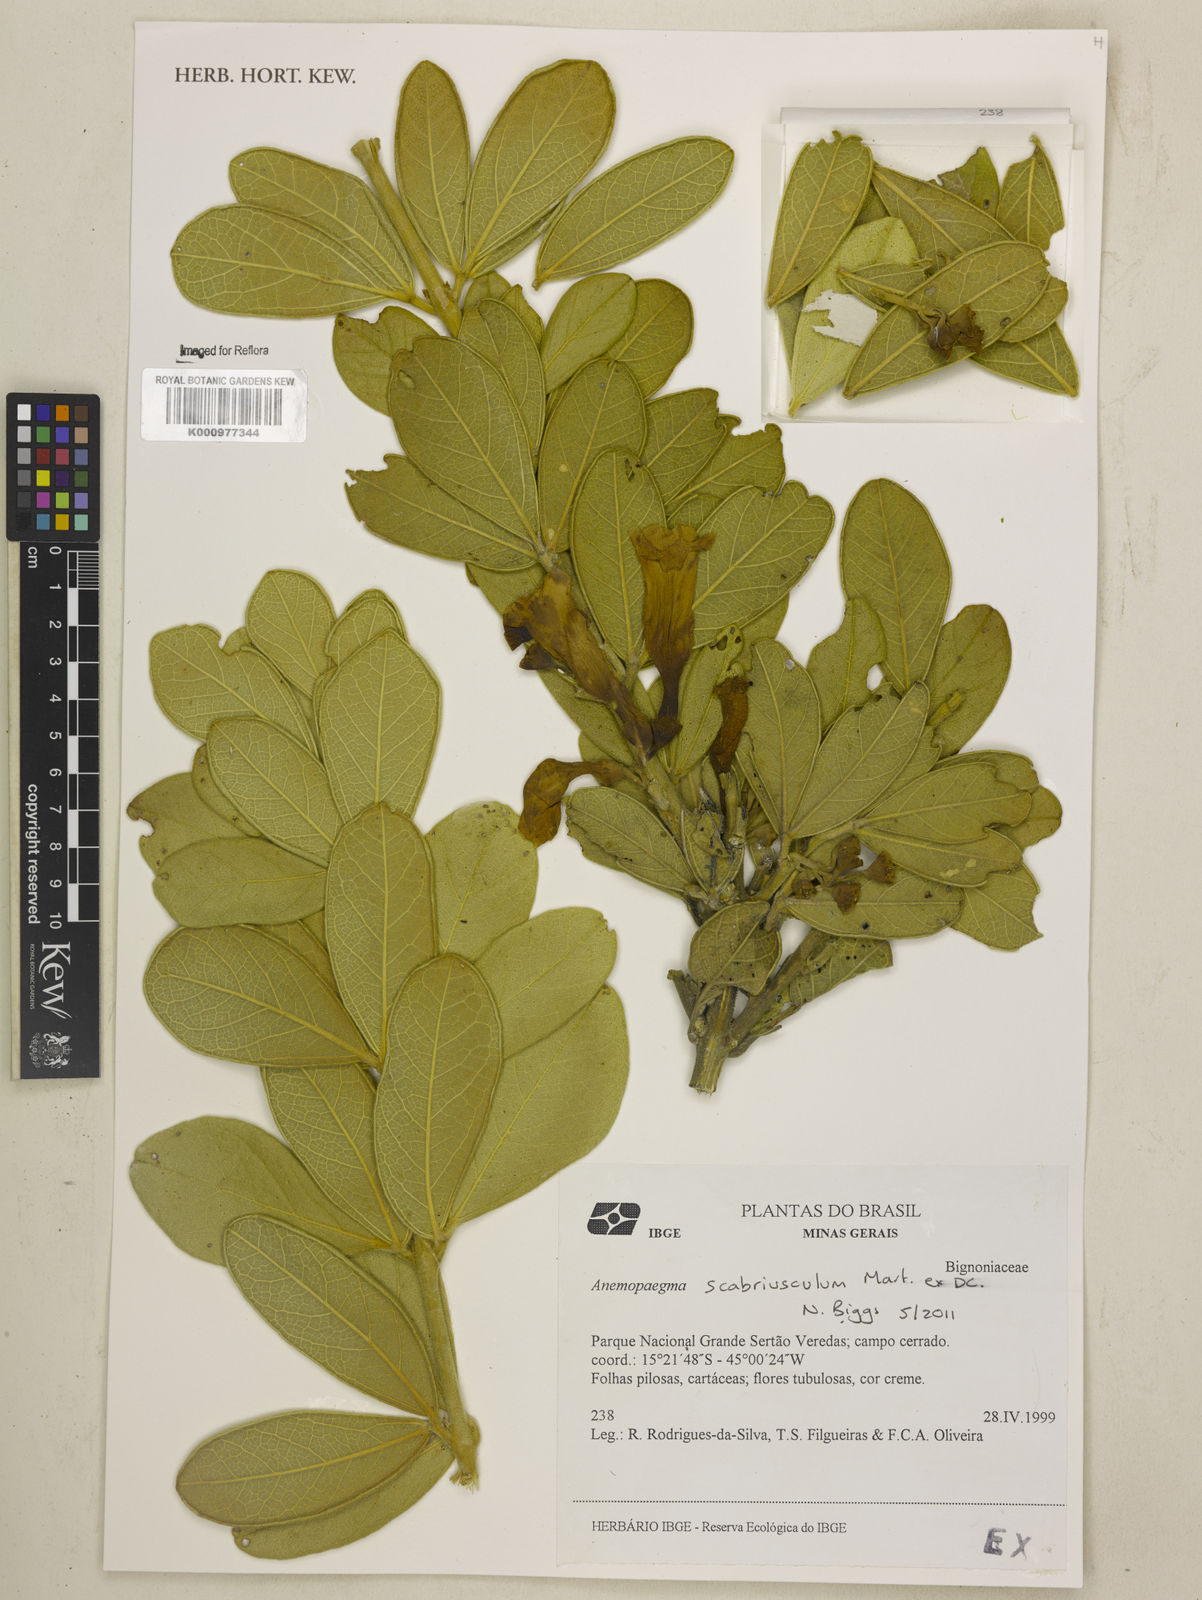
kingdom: Plantae
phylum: Tracheophyta
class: Magnoliopsida
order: Lamiales
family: Bignoniaceae
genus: Anemopaegma
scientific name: Anemopaegma scabriusculum
